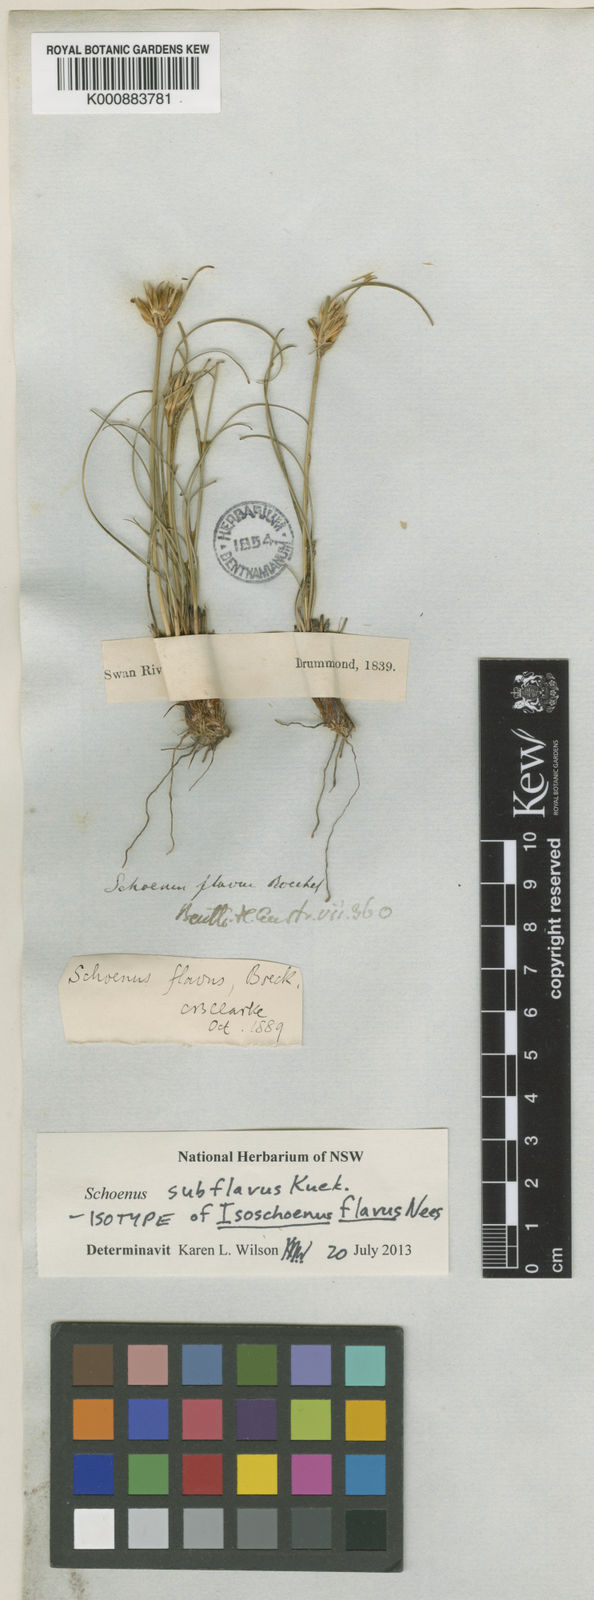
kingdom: Plantae
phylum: Tracheophyta
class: Liliopsida
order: Poales
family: Cyperaceae
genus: Schoenus
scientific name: Schoenus
